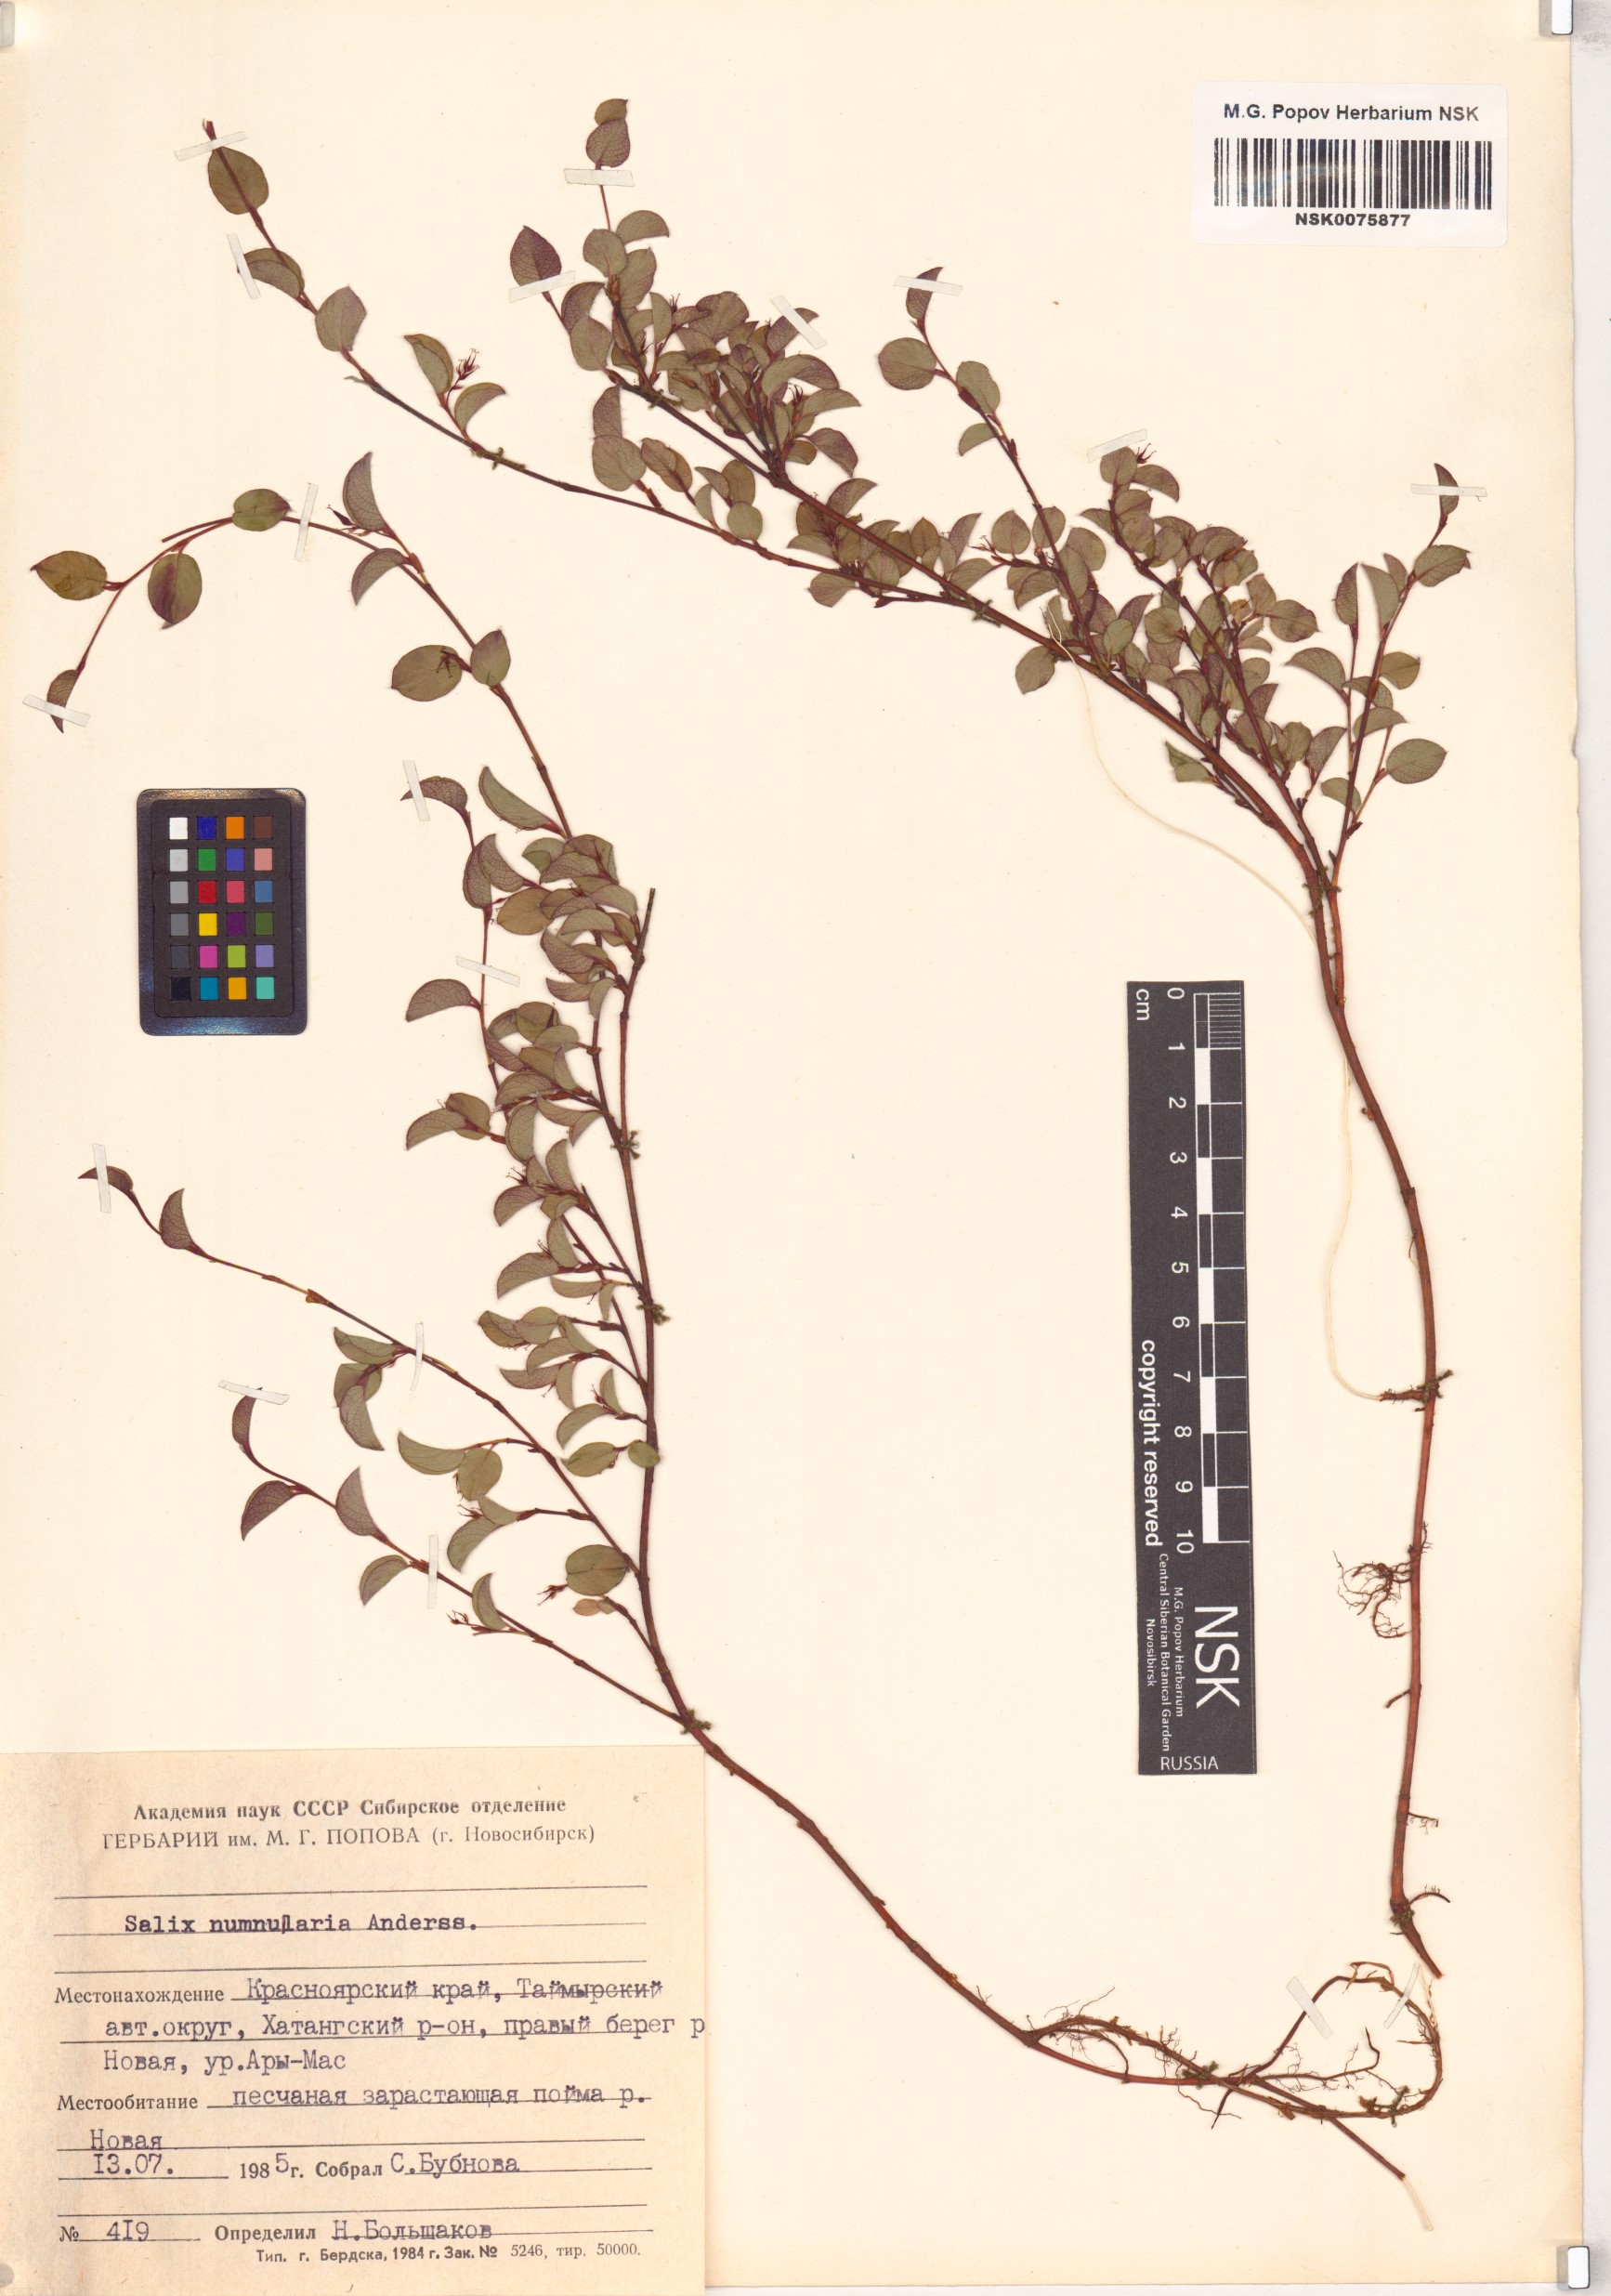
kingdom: Plantae
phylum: Tracheophyta
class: Magnoliopsida
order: Malpighiales
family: Salicaceae
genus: Salix
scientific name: Salix nummularia
